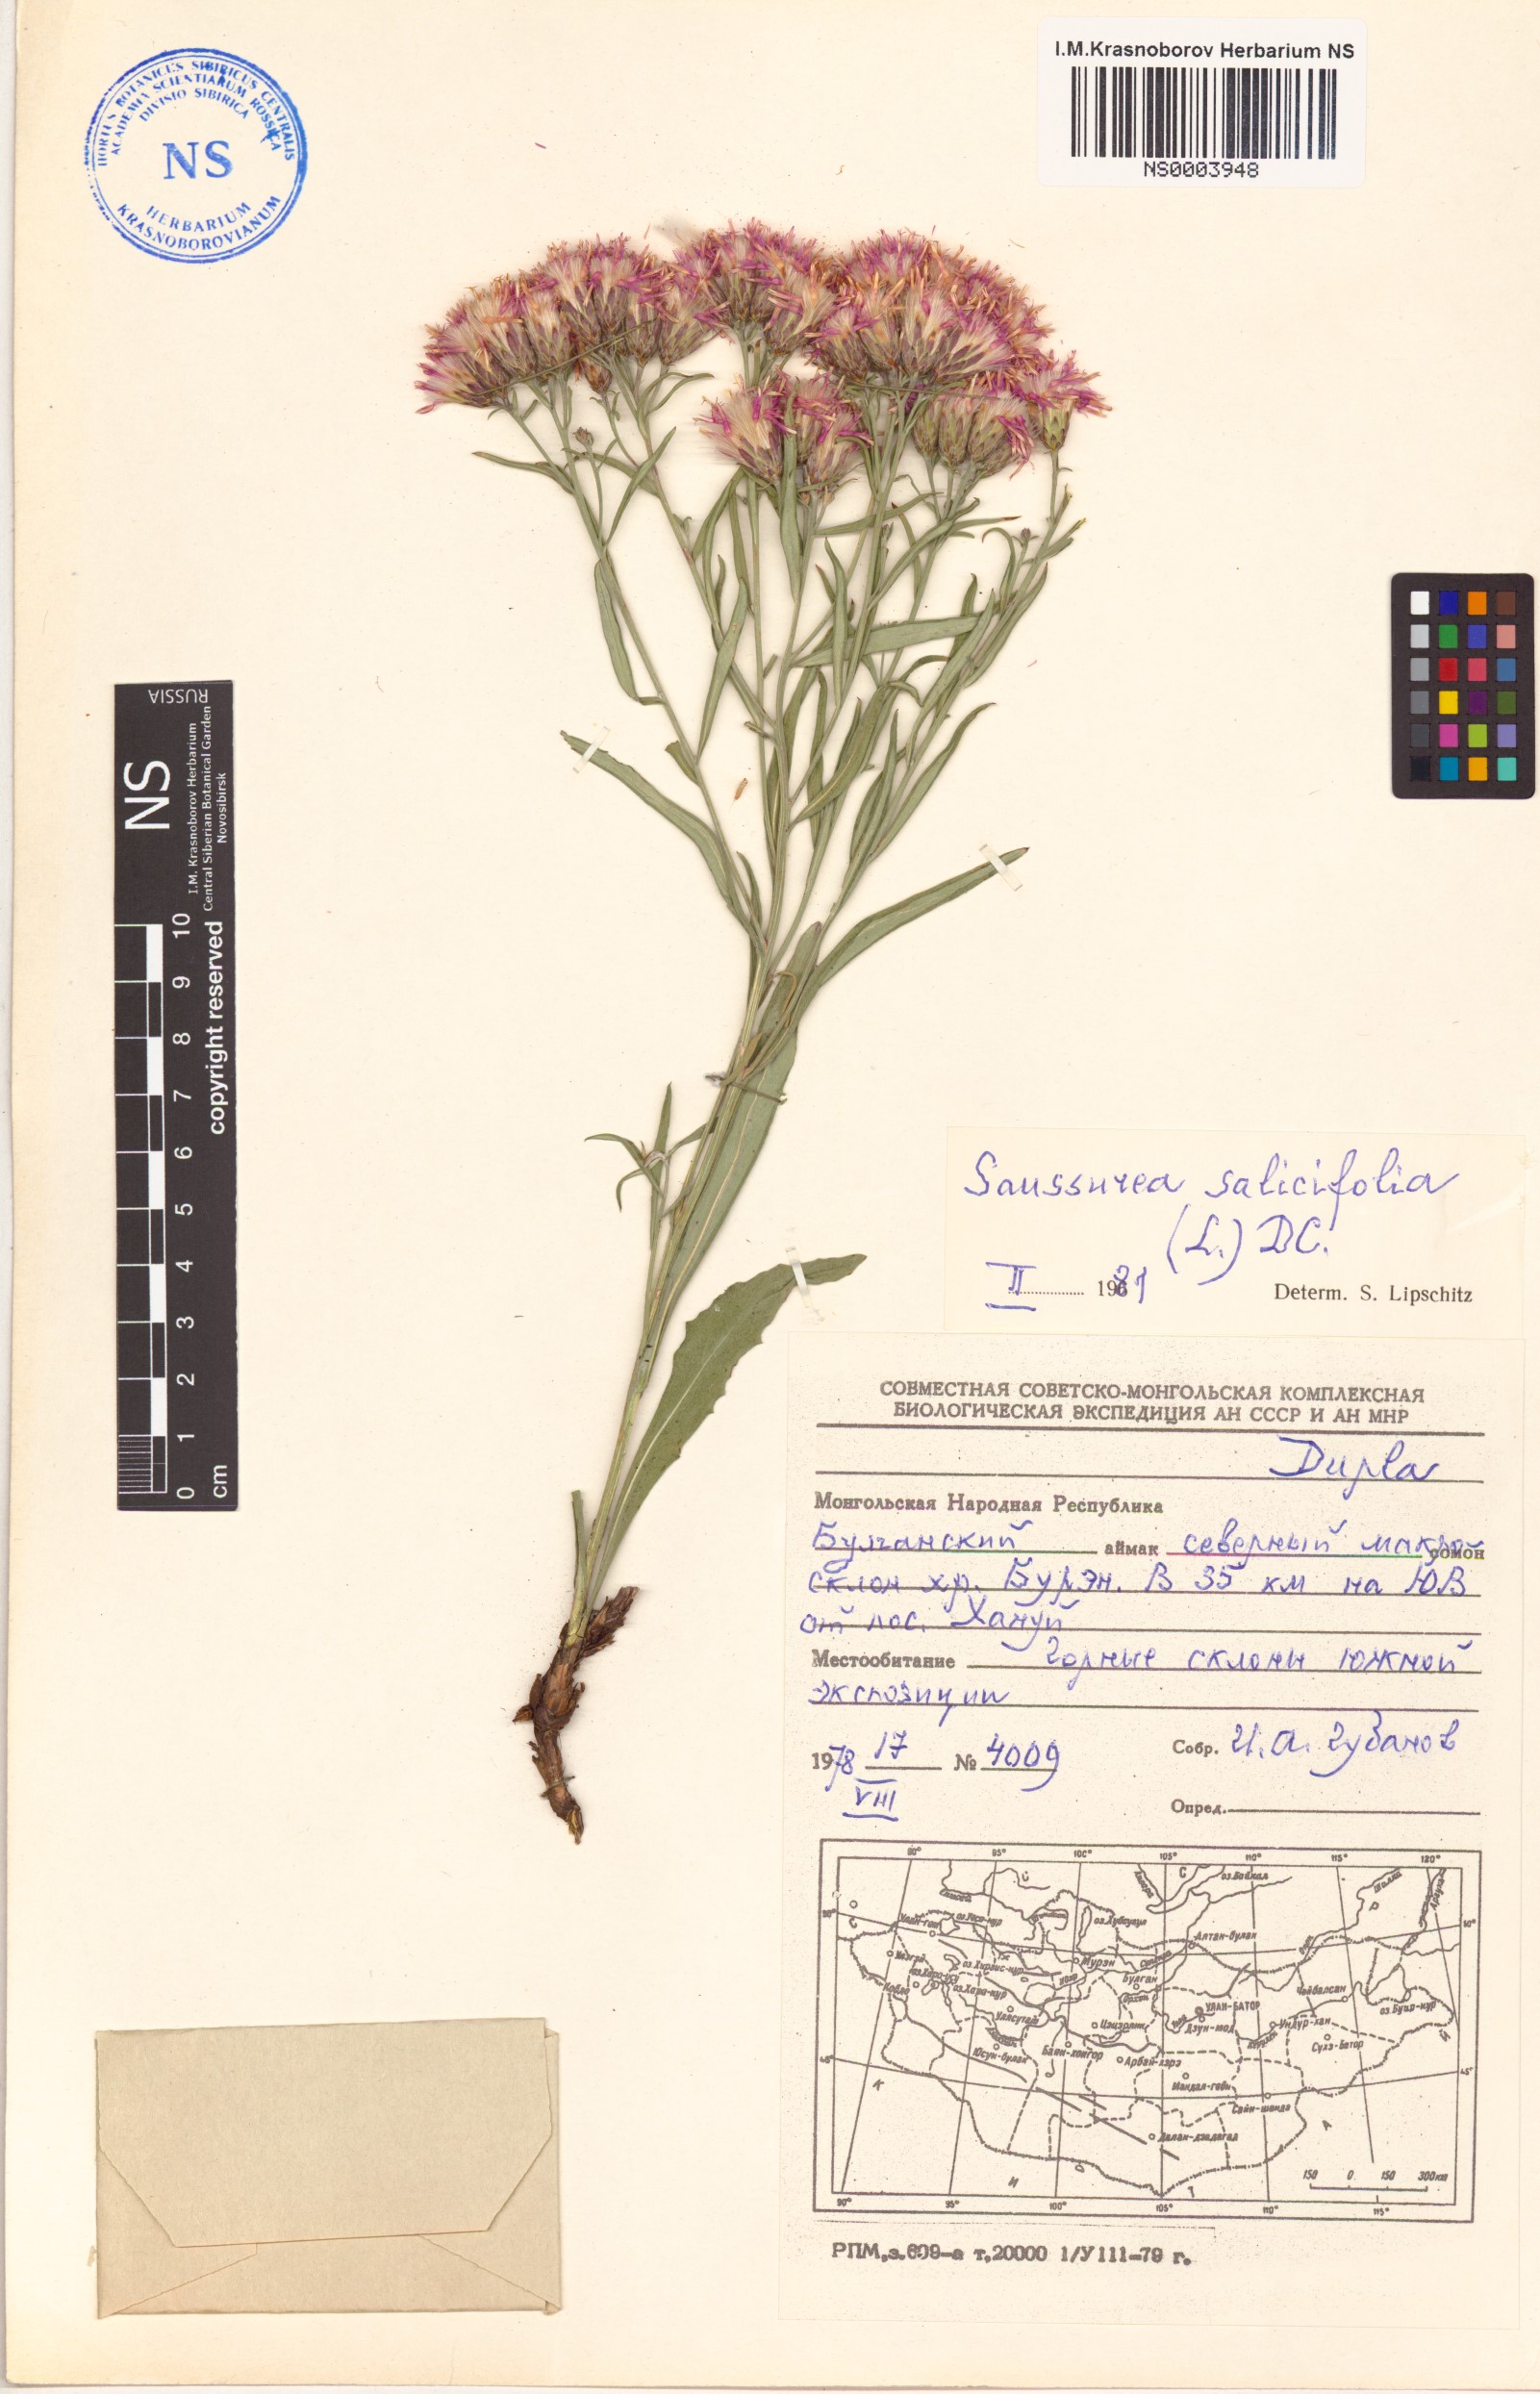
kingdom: Plantae
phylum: Tracheophyta
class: Magnoliopsida
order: Asterales
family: Asteraceae
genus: Saussurea
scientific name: Saussurea salicifolia
